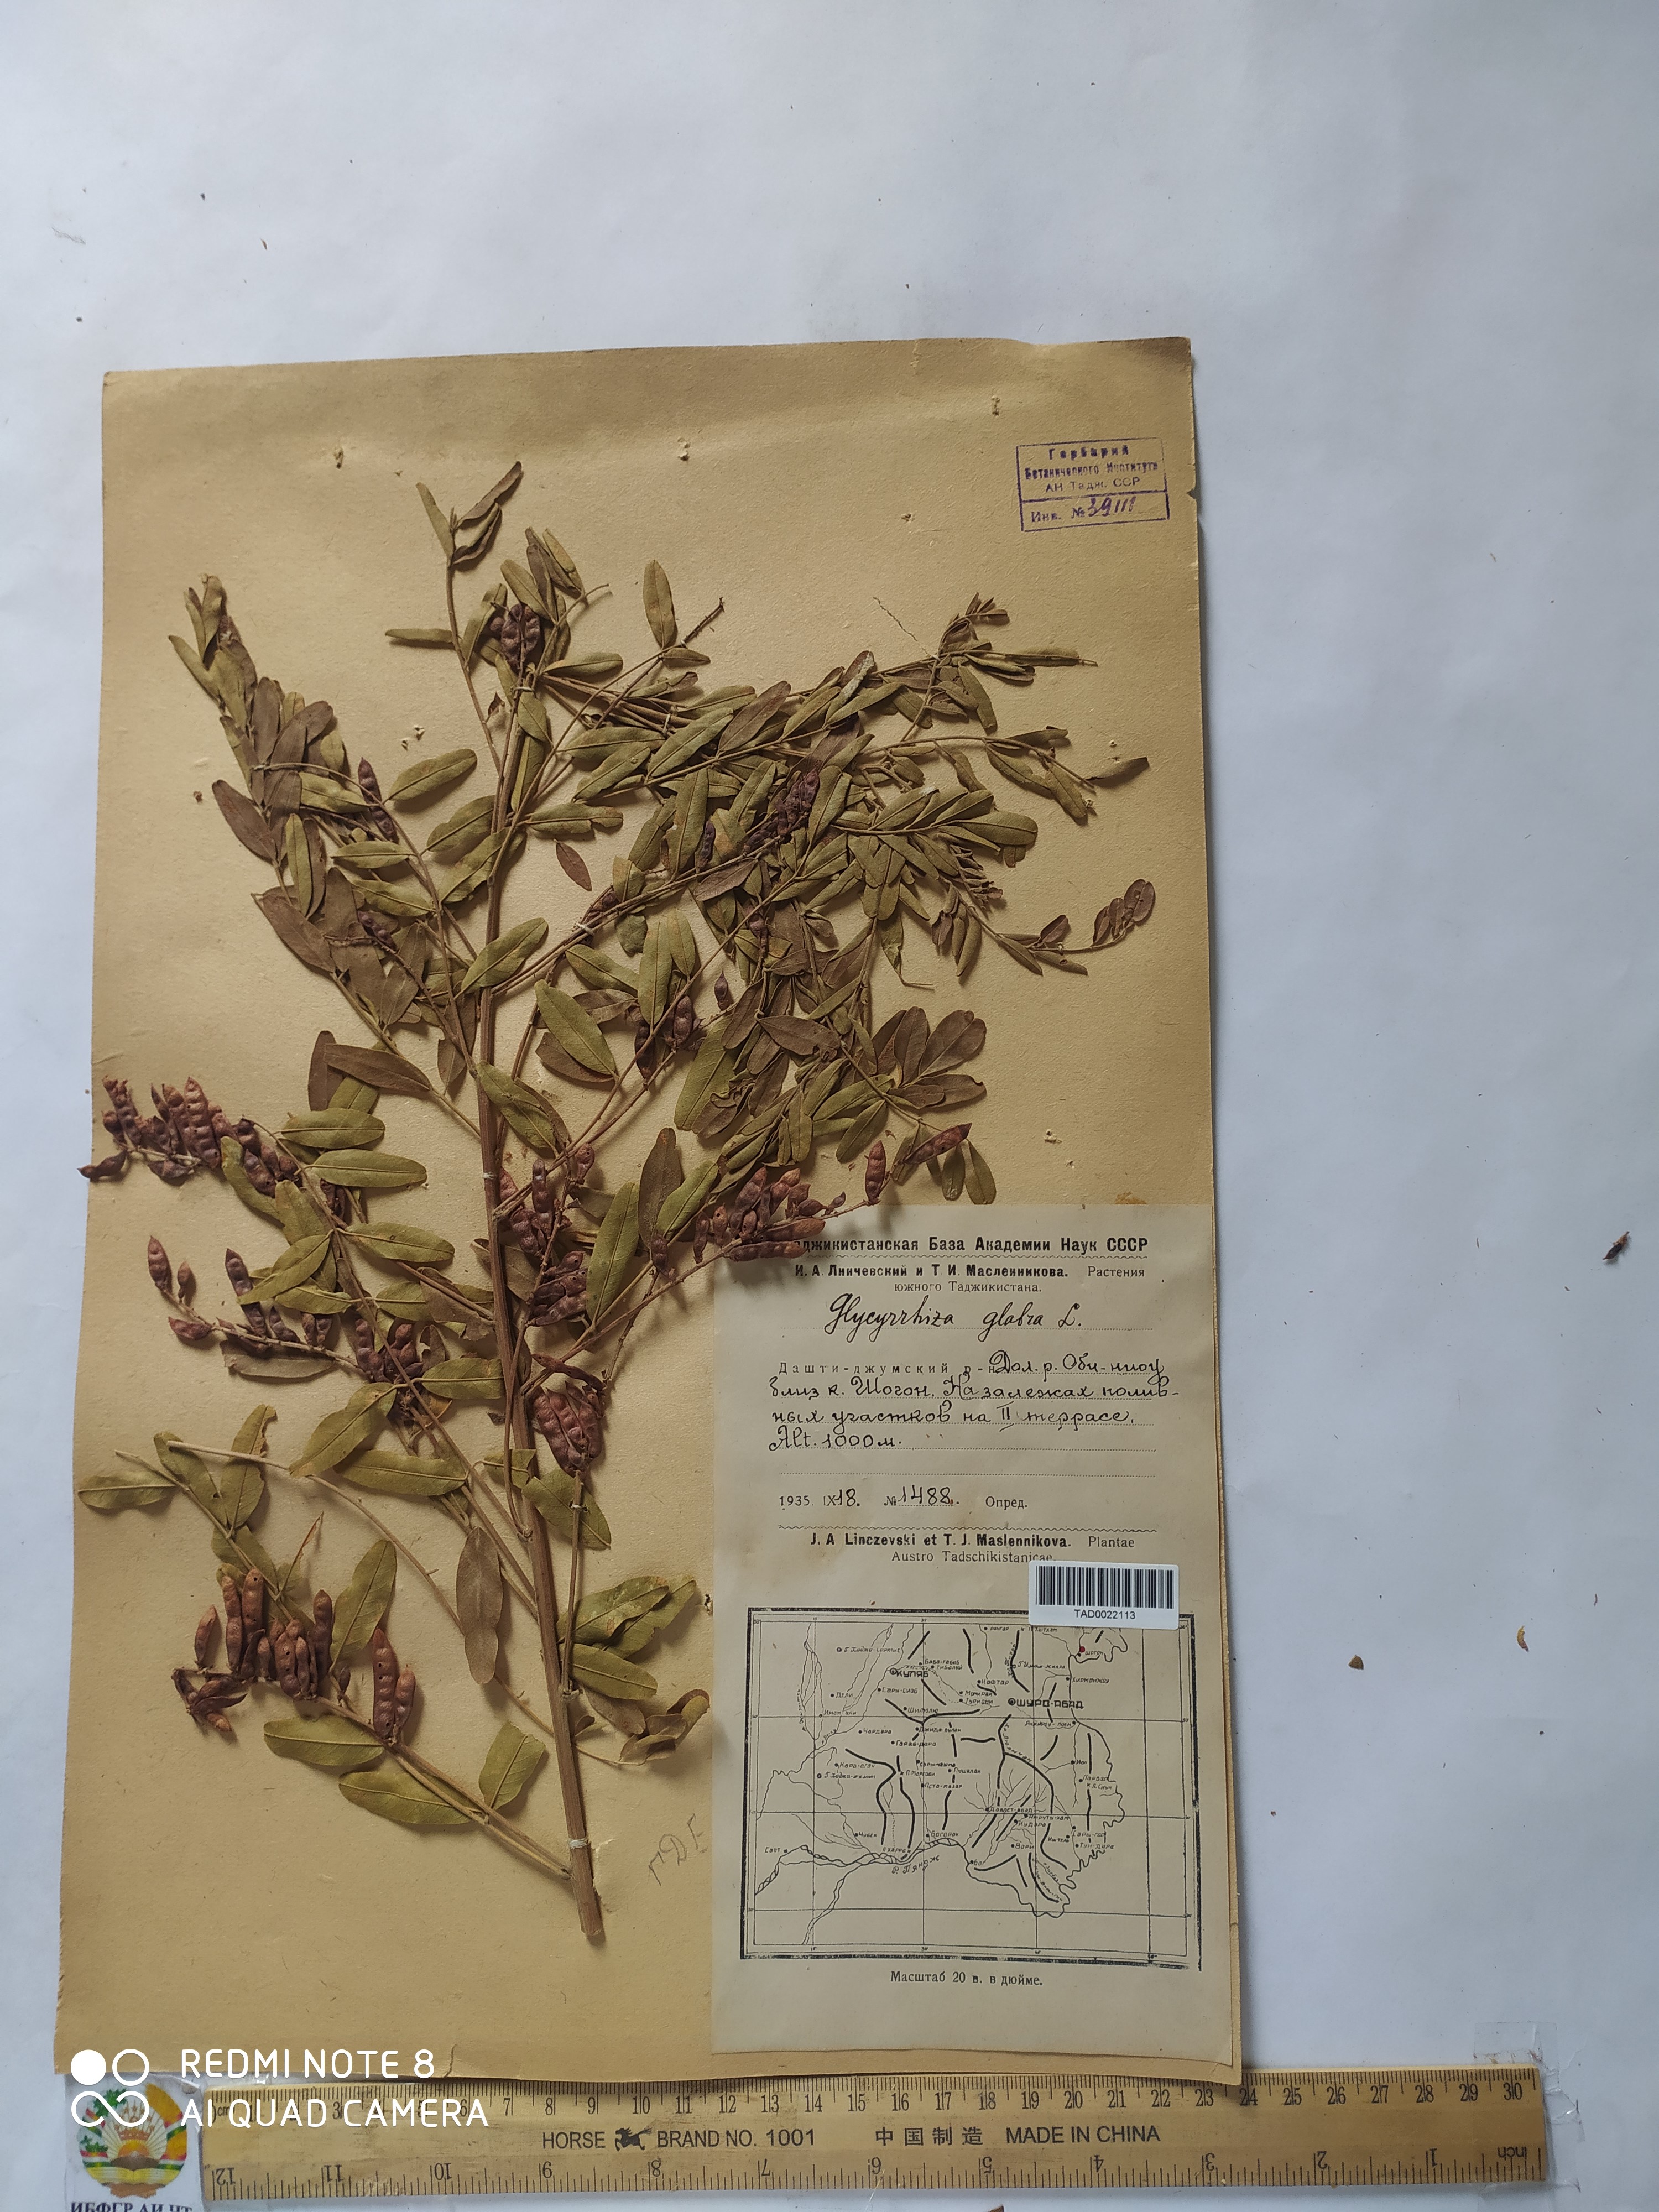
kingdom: Plantae
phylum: Tracheophyta
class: Magnoliopsida
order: Fabales
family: Fabaceae
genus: Glycyrrhiza
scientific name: Glycyrrhiza glabra
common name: Liquorice
